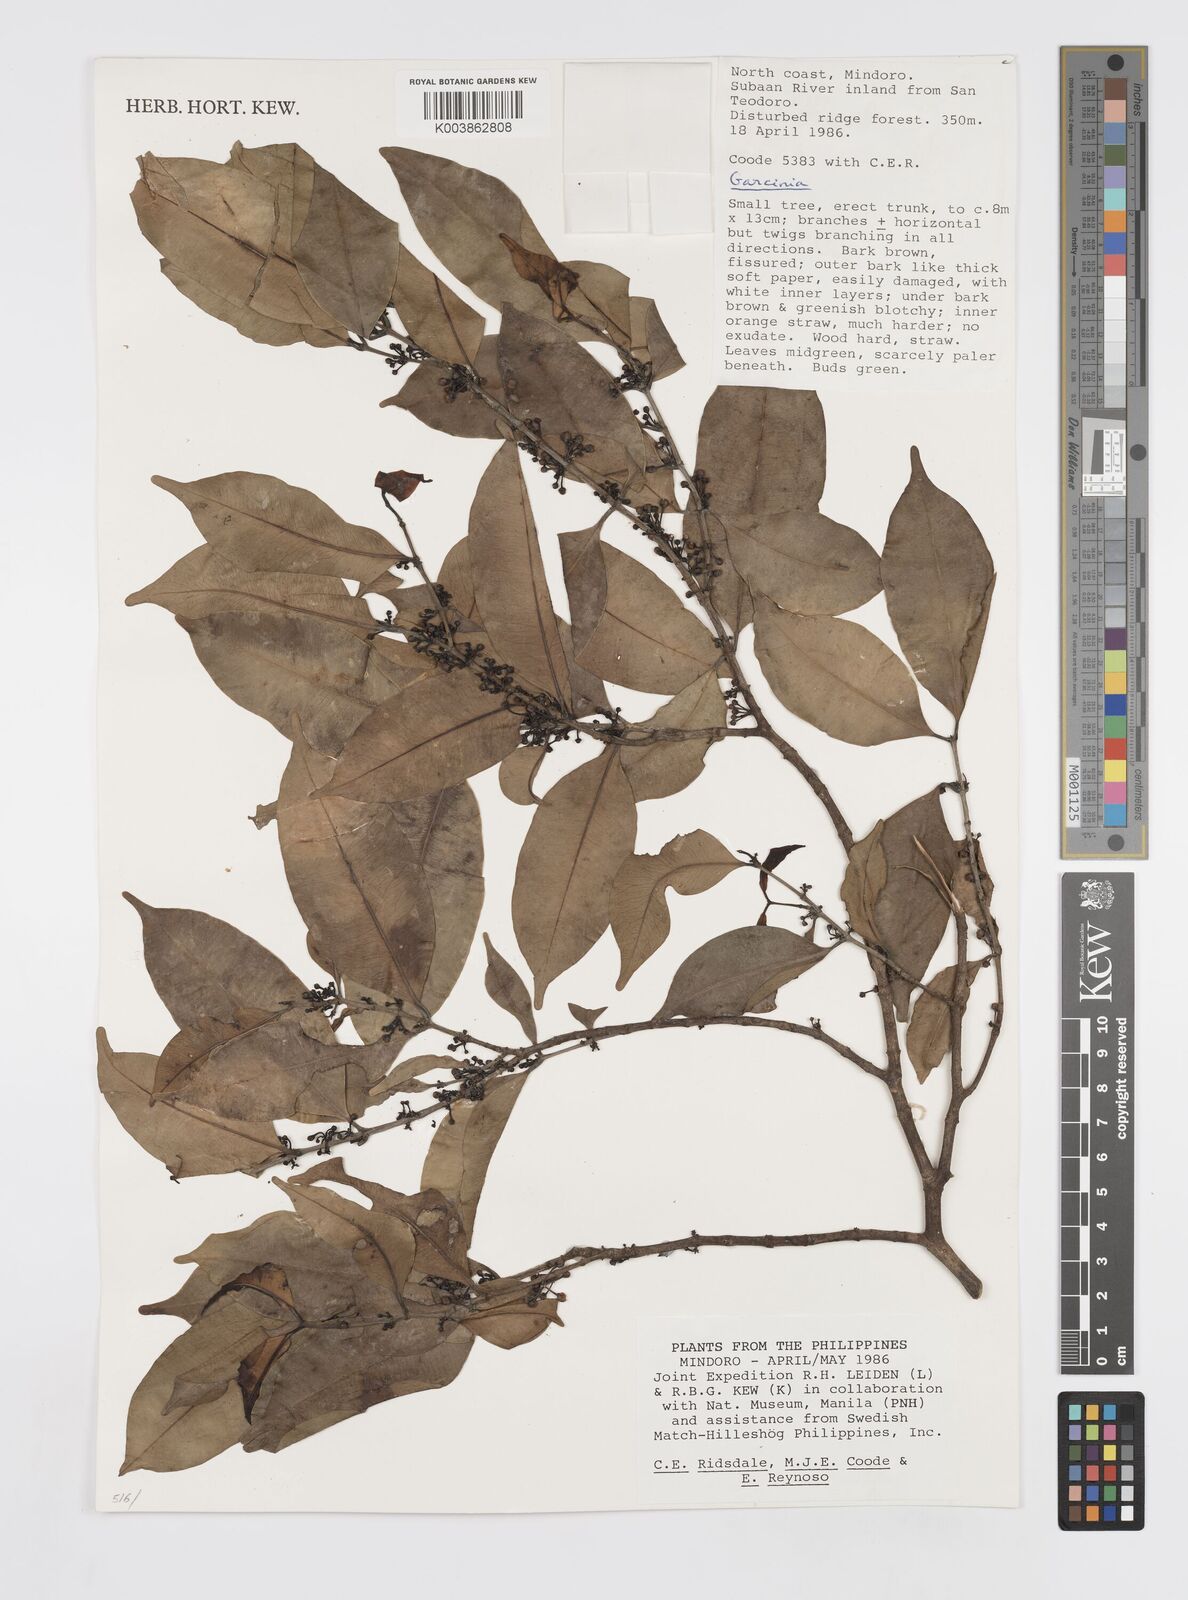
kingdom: Plantae
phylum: Tracheophyta
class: Magnoliopsida
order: Malpighiales
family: Clusiaceae
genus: Garcinia
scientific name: Garcinia
